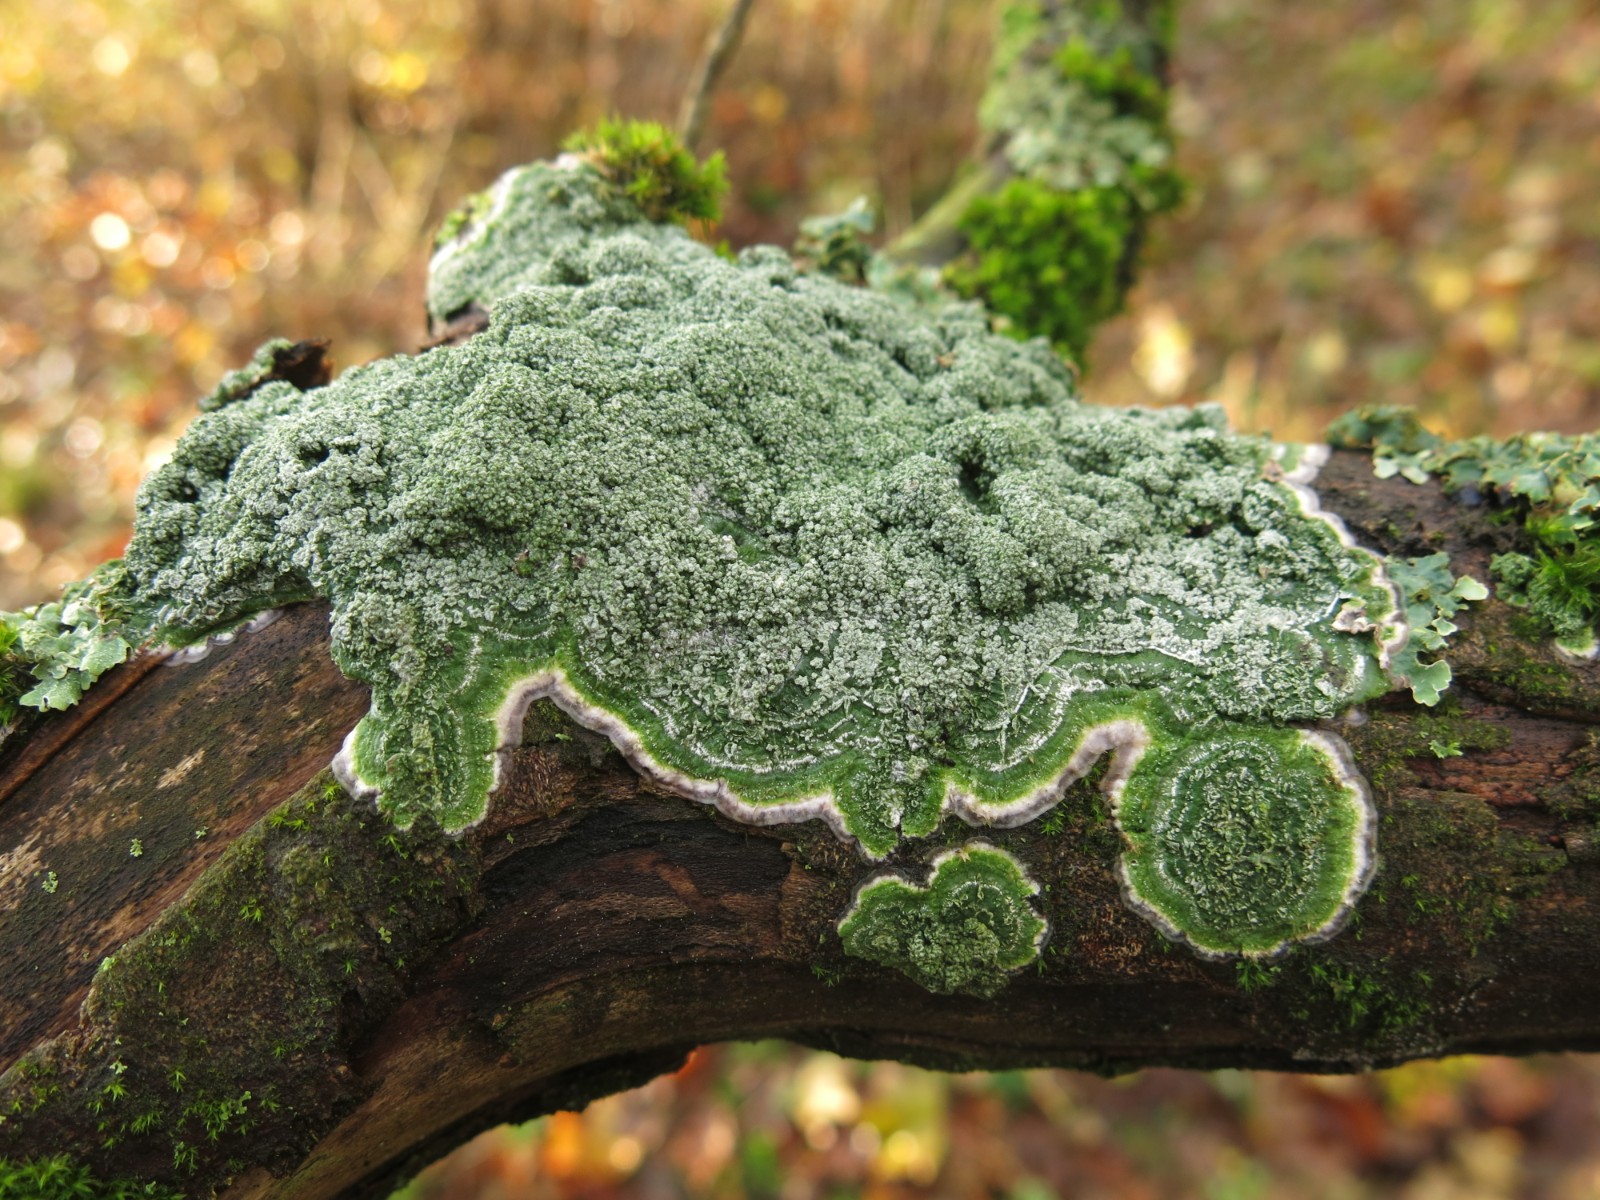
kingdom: Fungi
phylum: Ascomycota
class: Lecanoromycetes
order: Pertusariales
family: Pertusariaceae
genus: Lepra
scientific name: Lepra albescens
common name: hvidmelet prikvortelav
